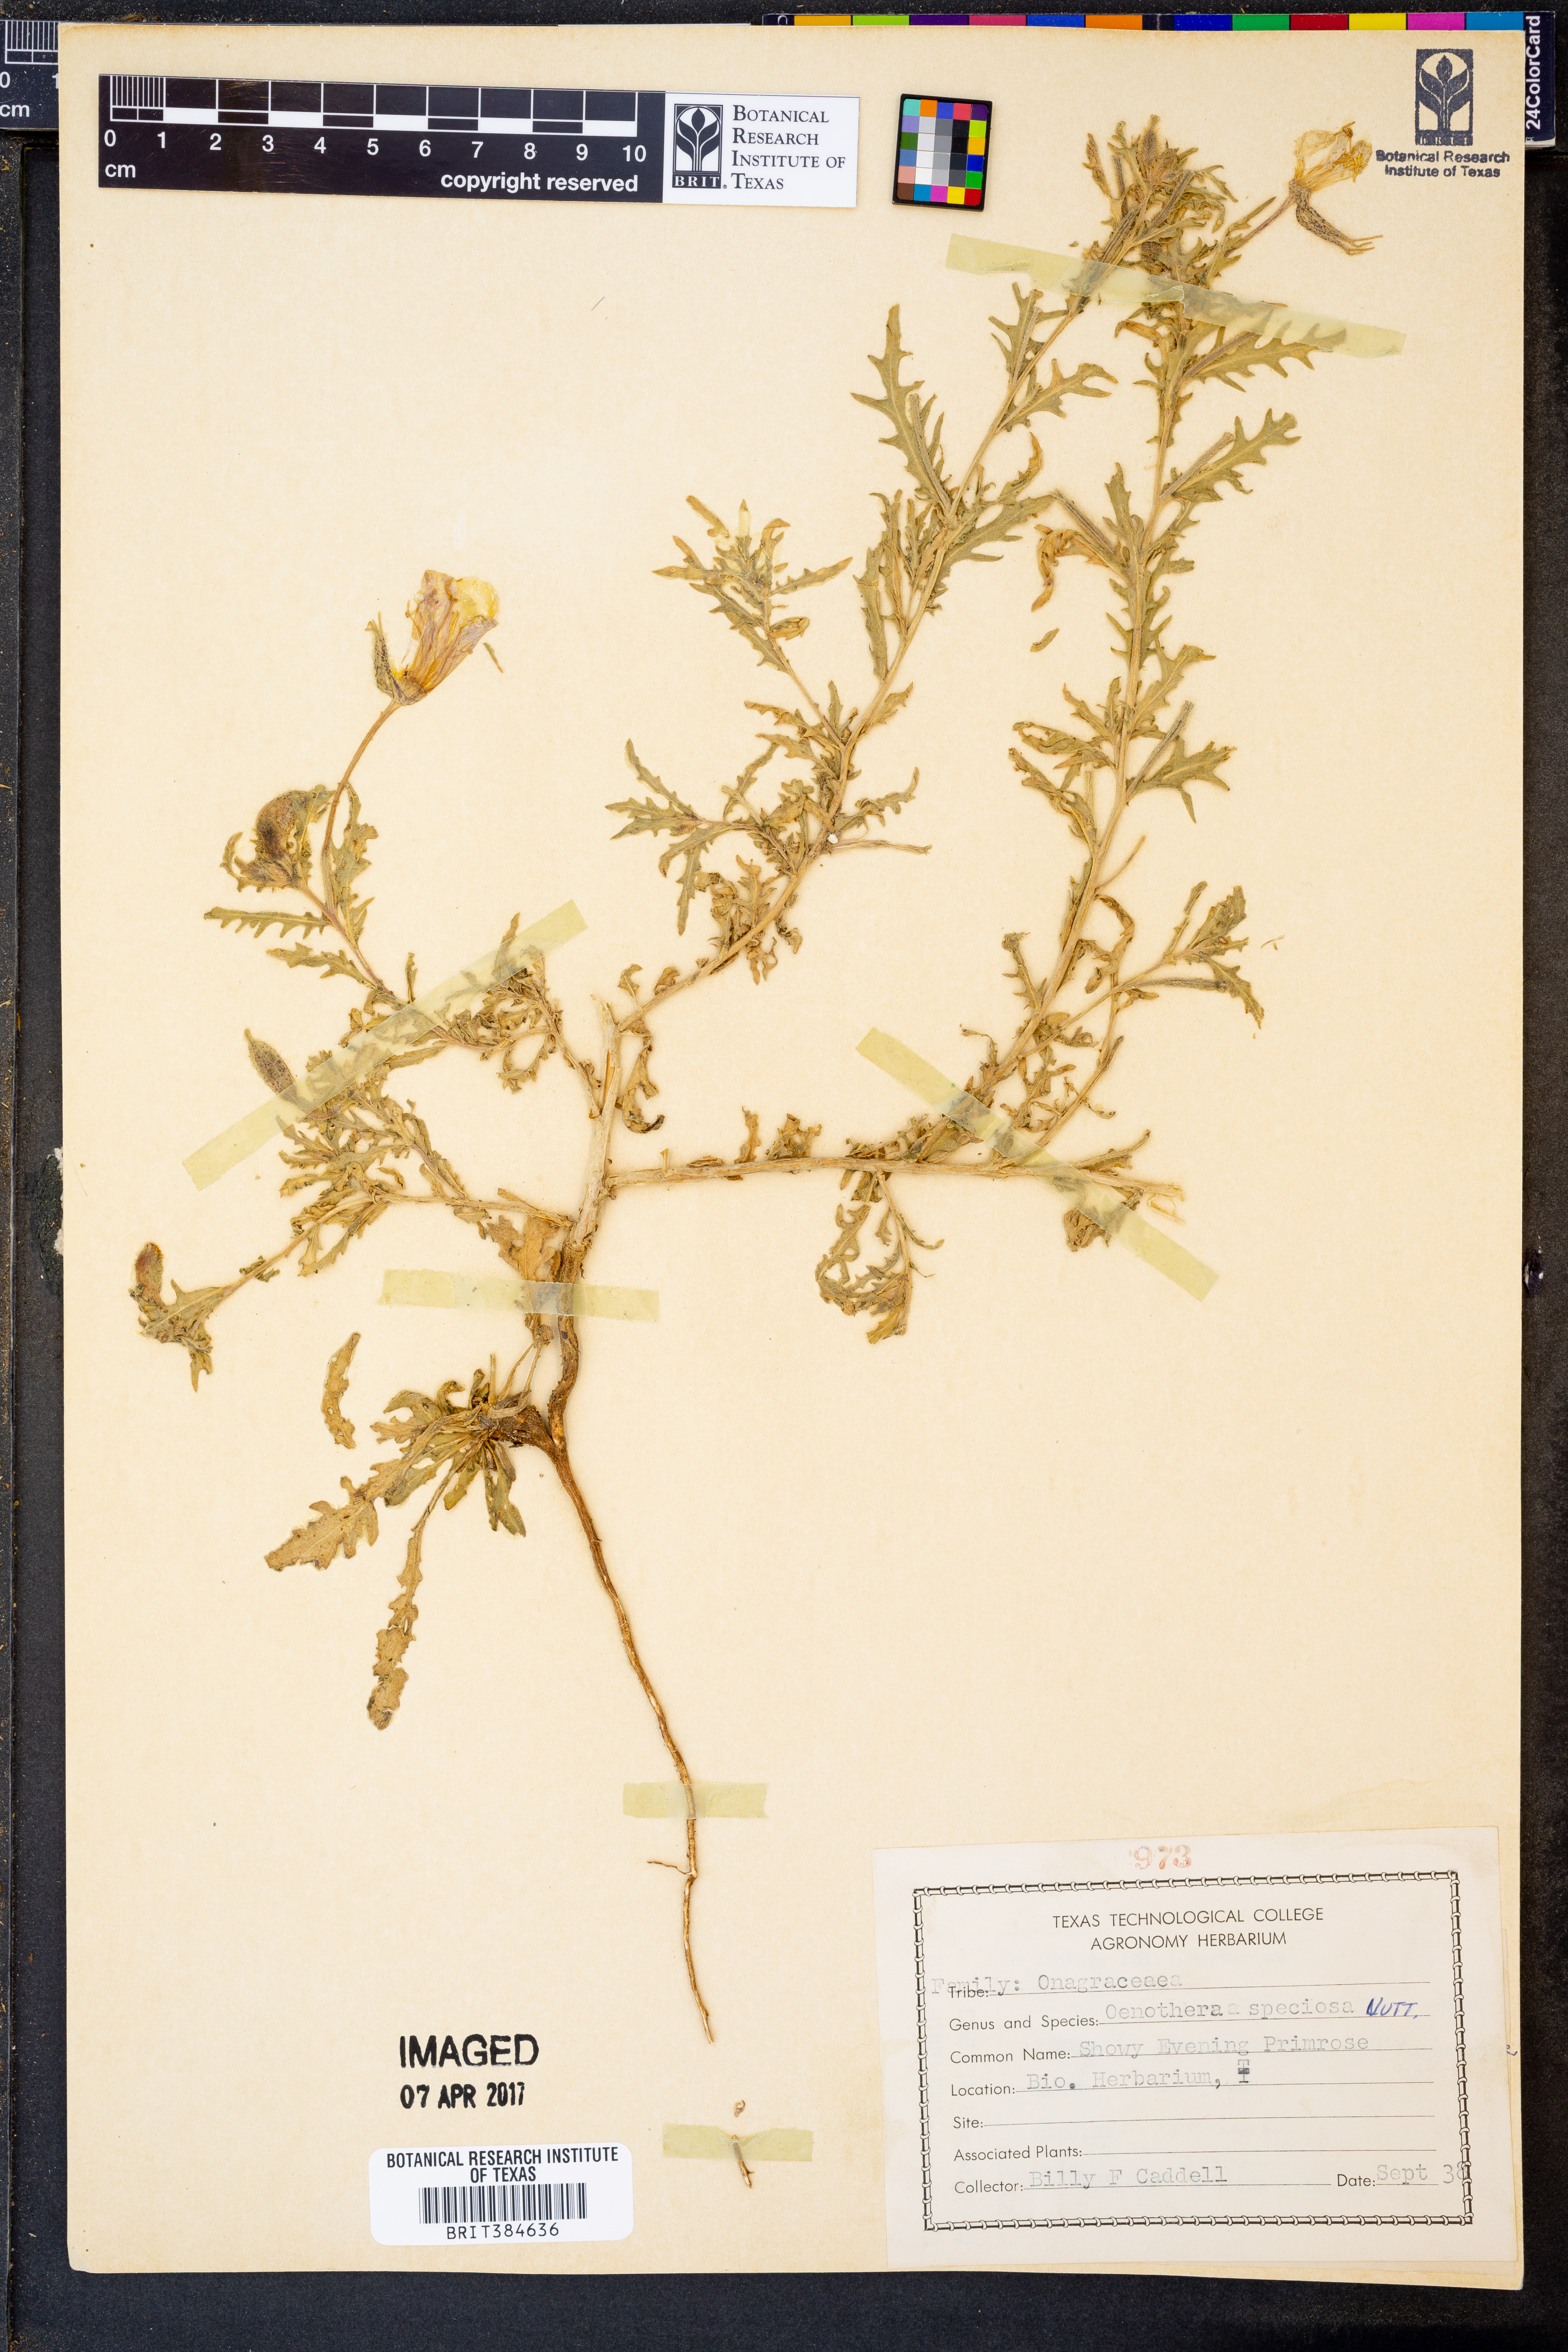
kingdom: Plantae
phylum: Tracheophyta
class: Magnoliopsida
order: Myrtales
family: Onagraceae
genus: Oenothera
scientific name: Oenothera speciosa
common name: White evening-primrose
